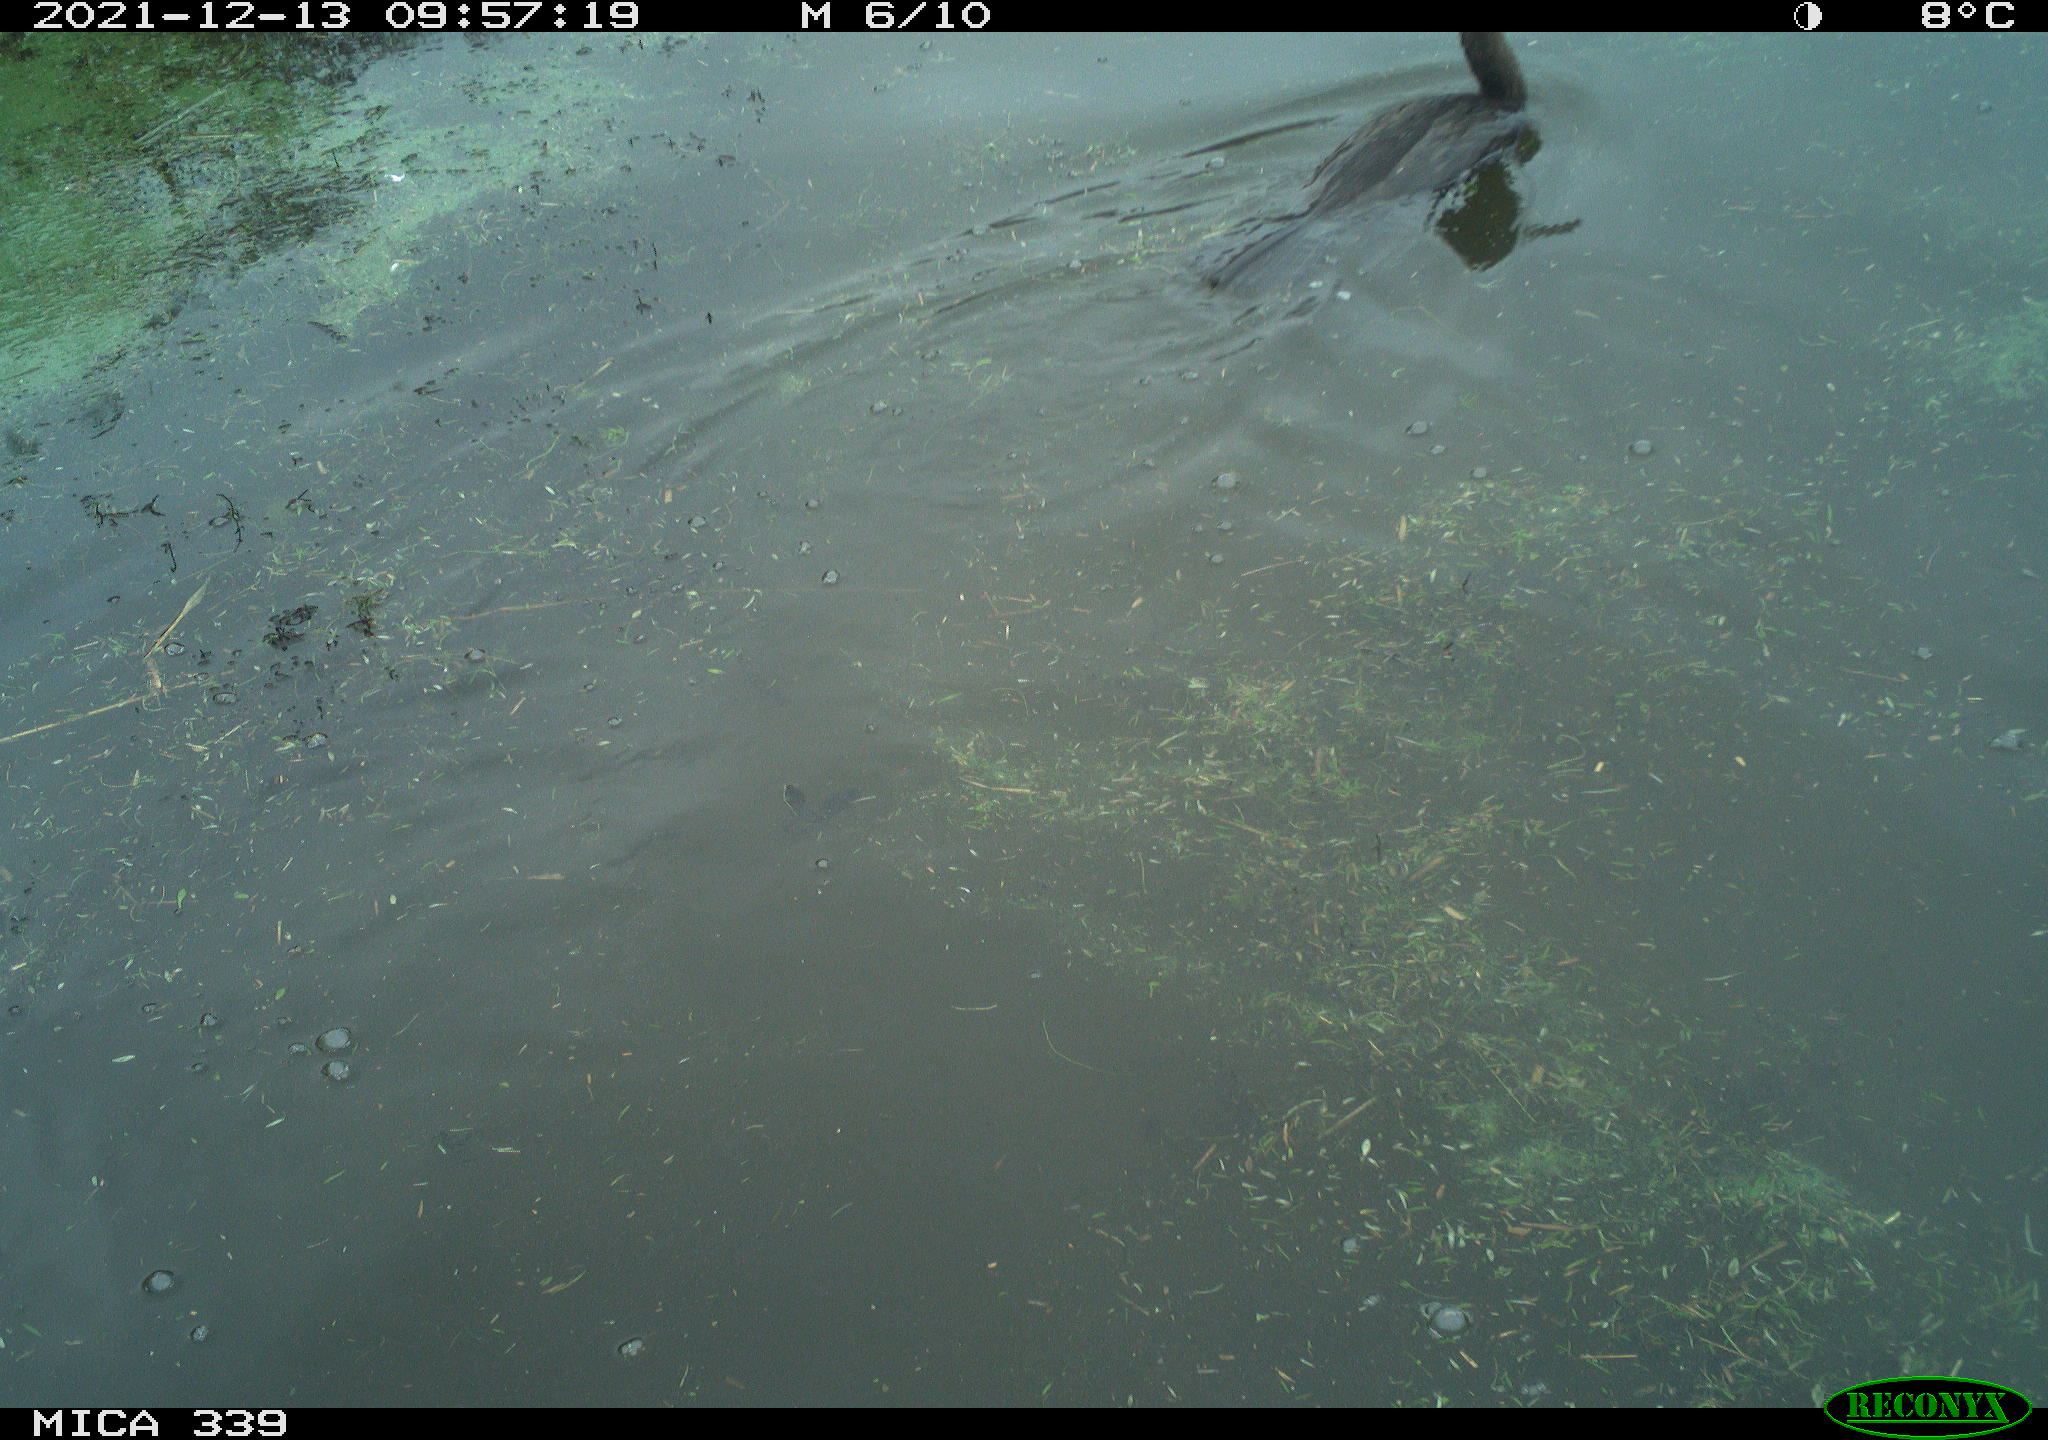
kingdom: Animalia
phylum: Chordata
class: Aves
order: Suliformes
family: Phalacrocoracidae
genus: Phalacrocorax
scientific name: Phalacrocorax carbo
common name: Great cormorant
